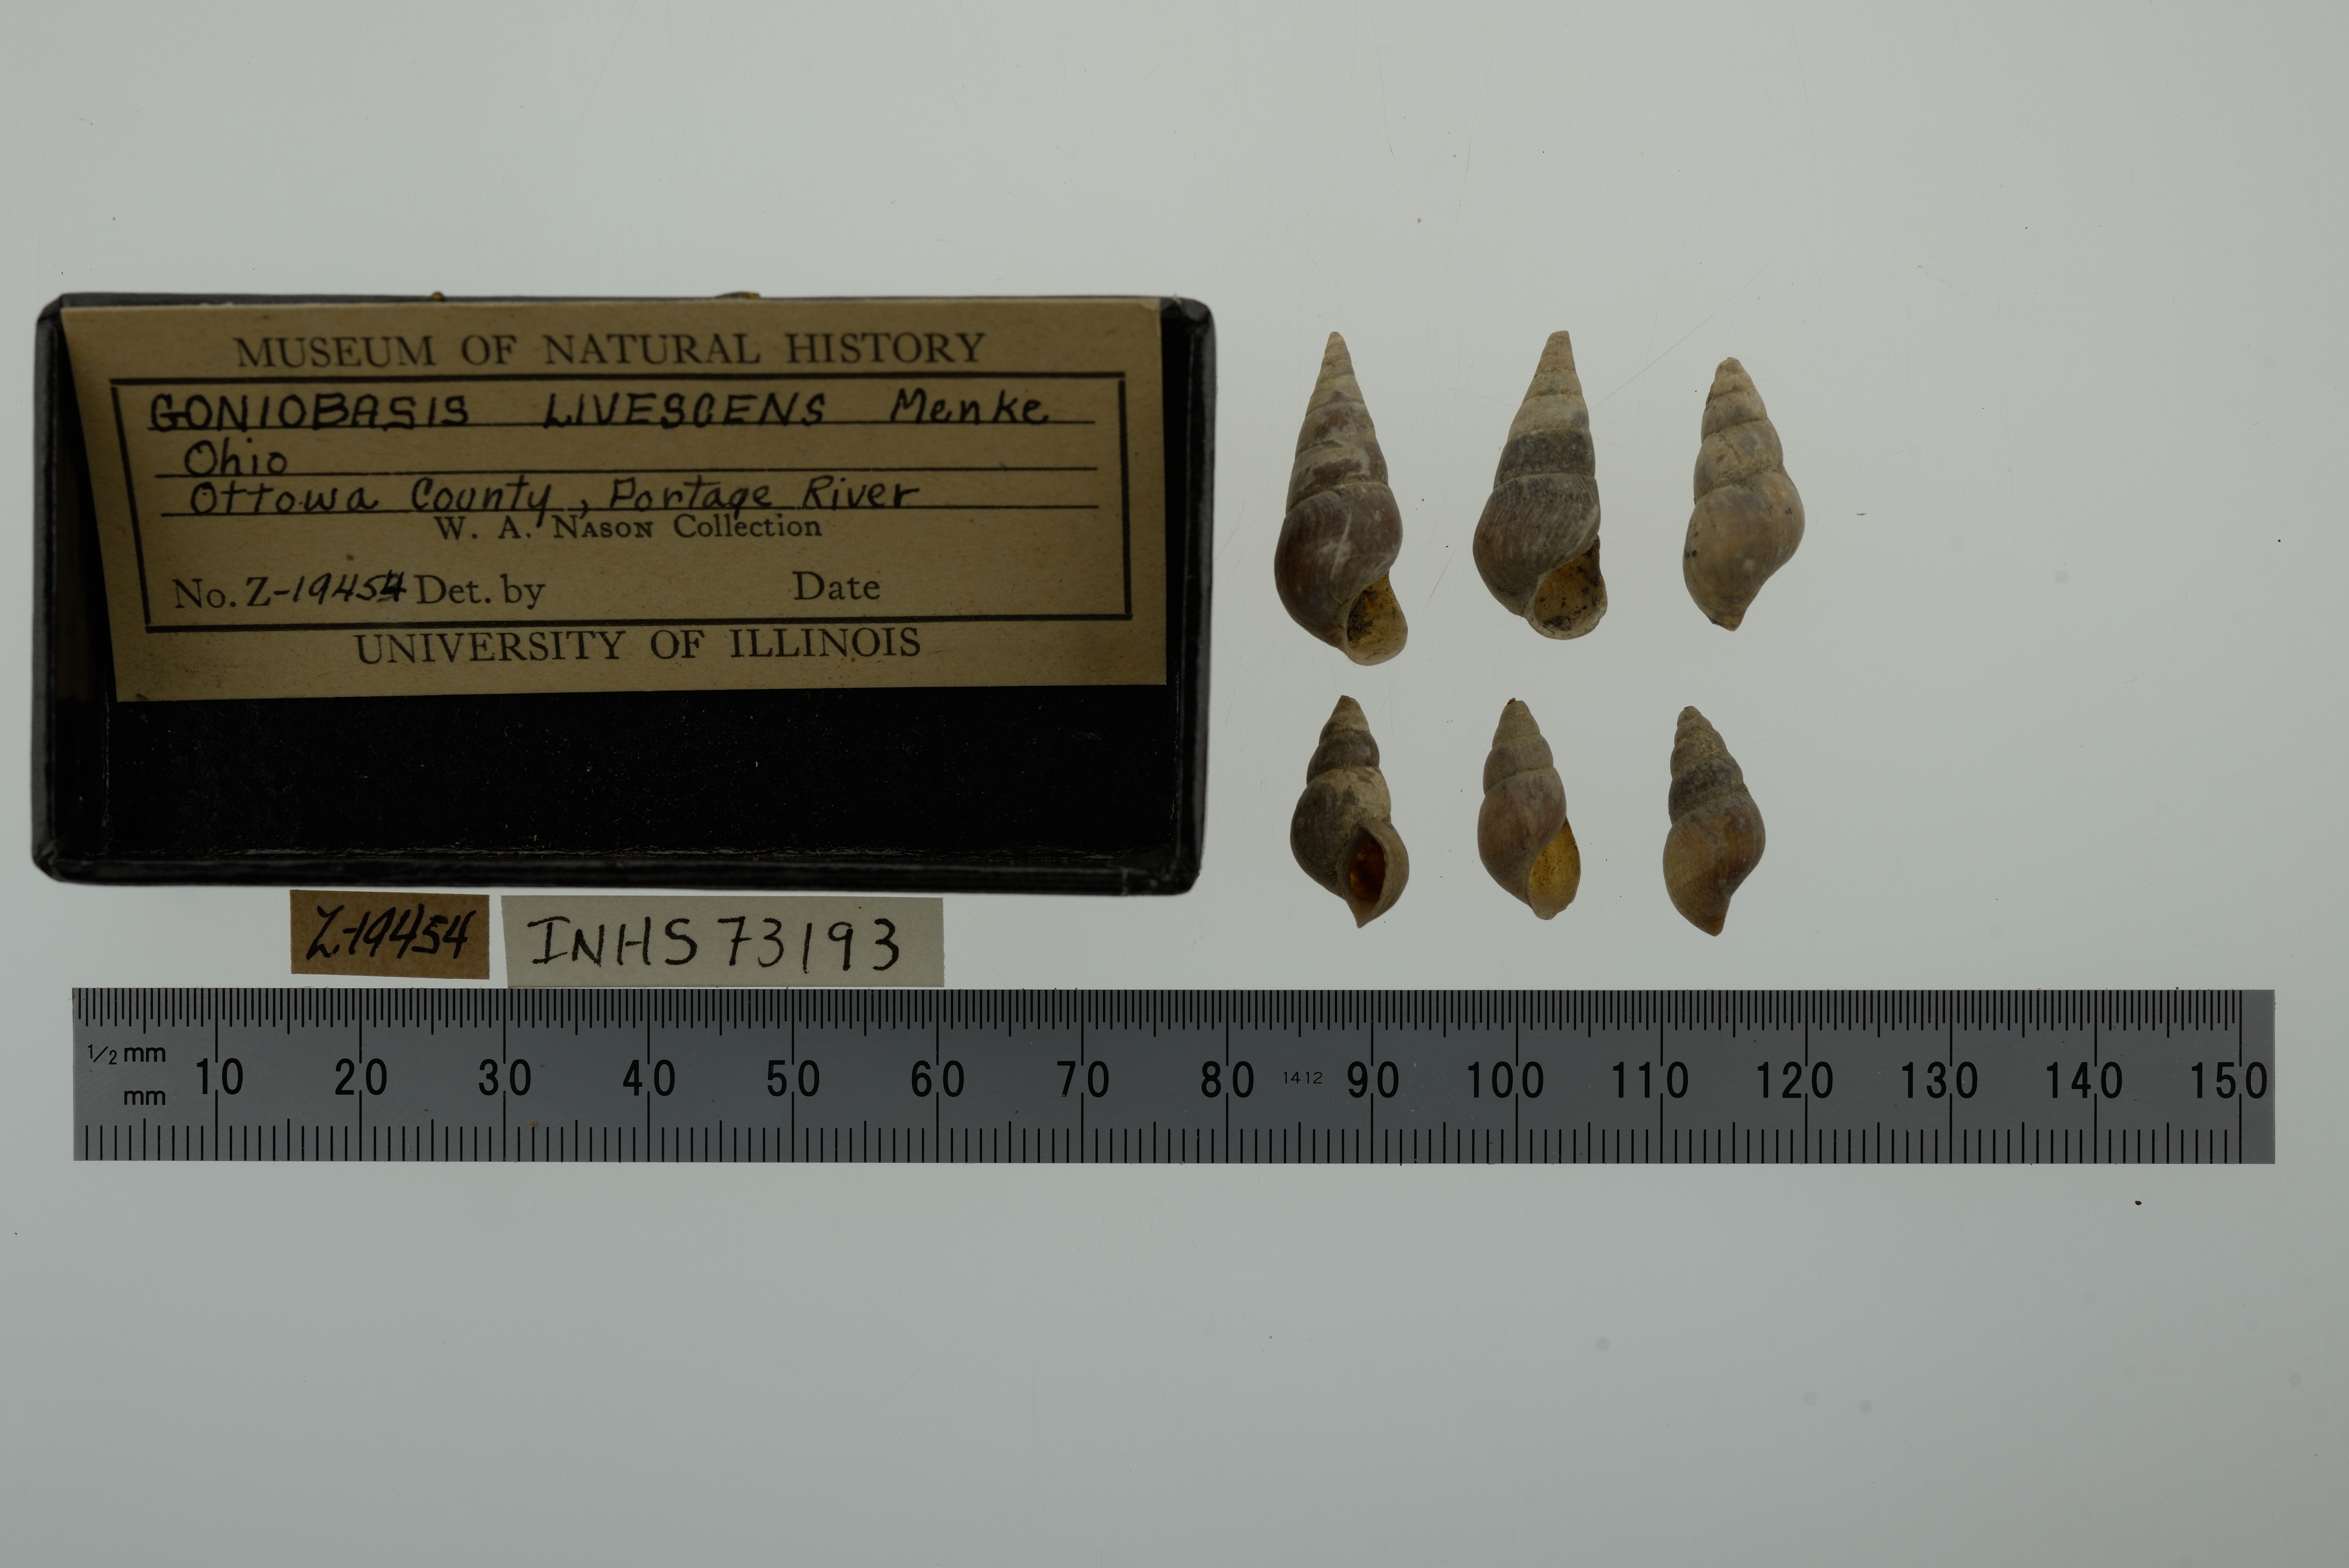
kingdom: Animalia
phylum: Mollusca
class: Gastropoda
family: Pleuroceridae
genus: Elimia
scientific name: Elimia livescens
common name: Liver elimia
